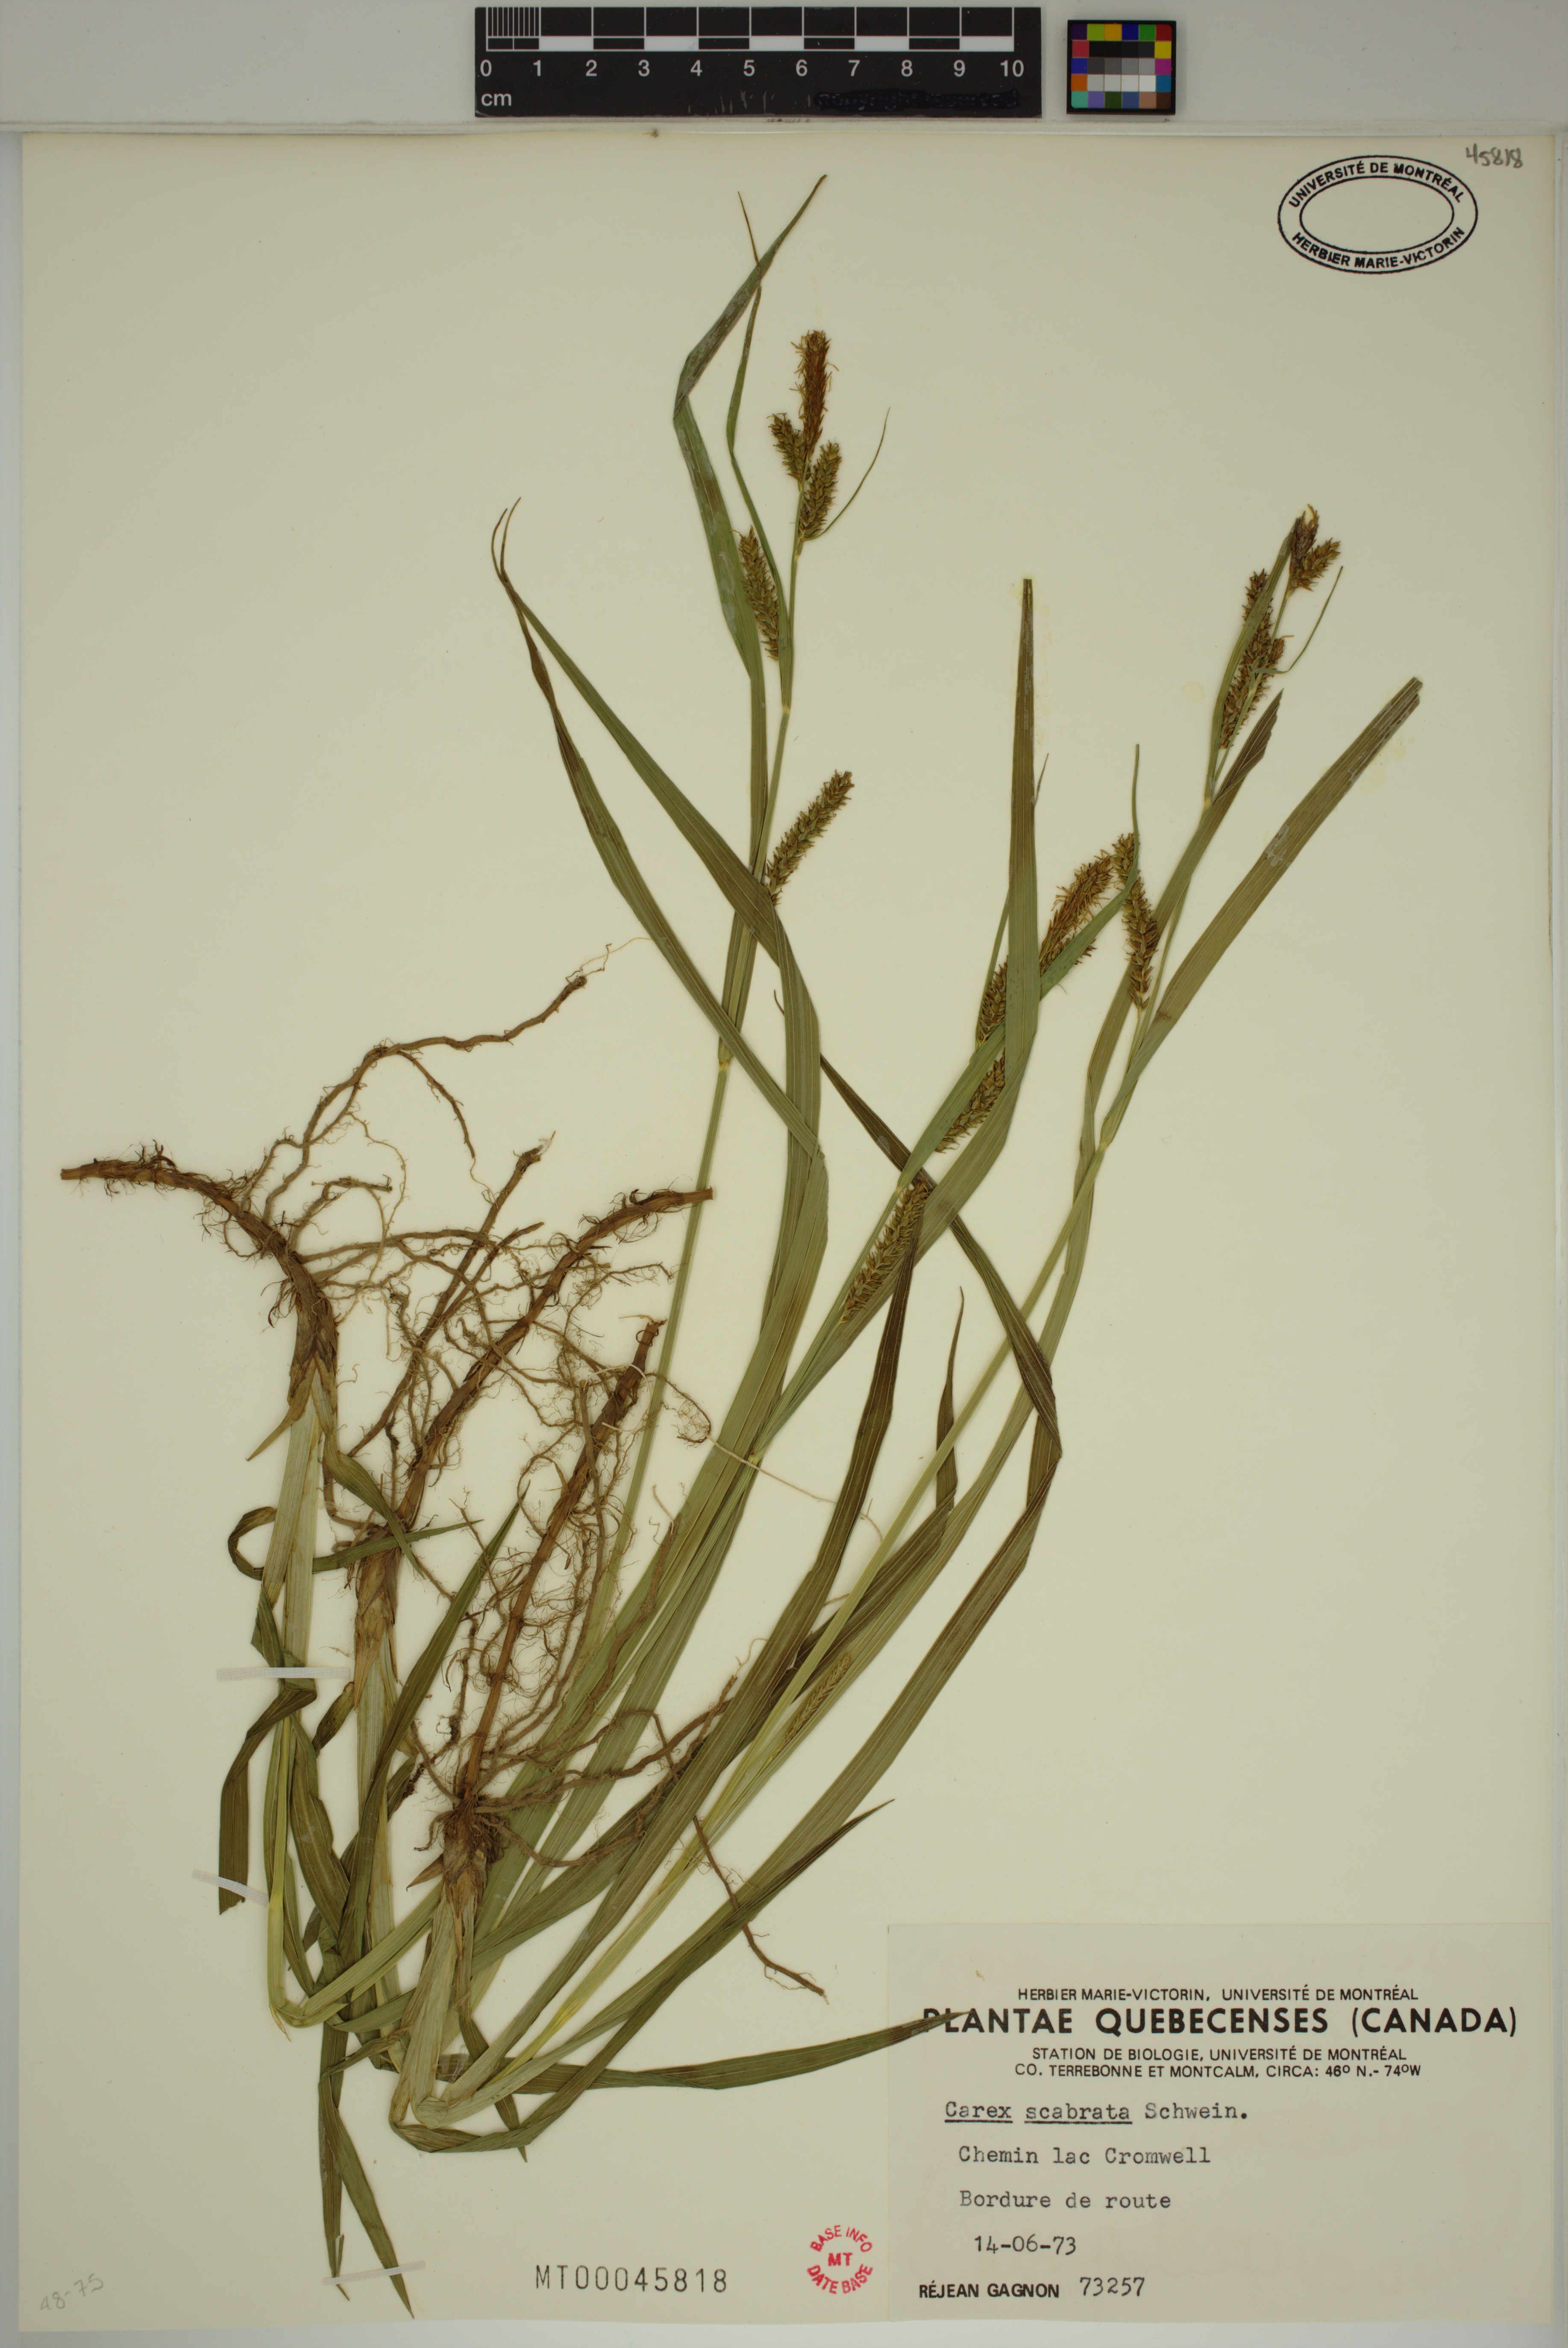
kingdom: Plantae
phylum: Tracheophyta
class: Liliopsida
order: Poales
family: Cyperaceae
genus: Carex
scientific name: Carex scabrata
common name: Eastern rough sedge
